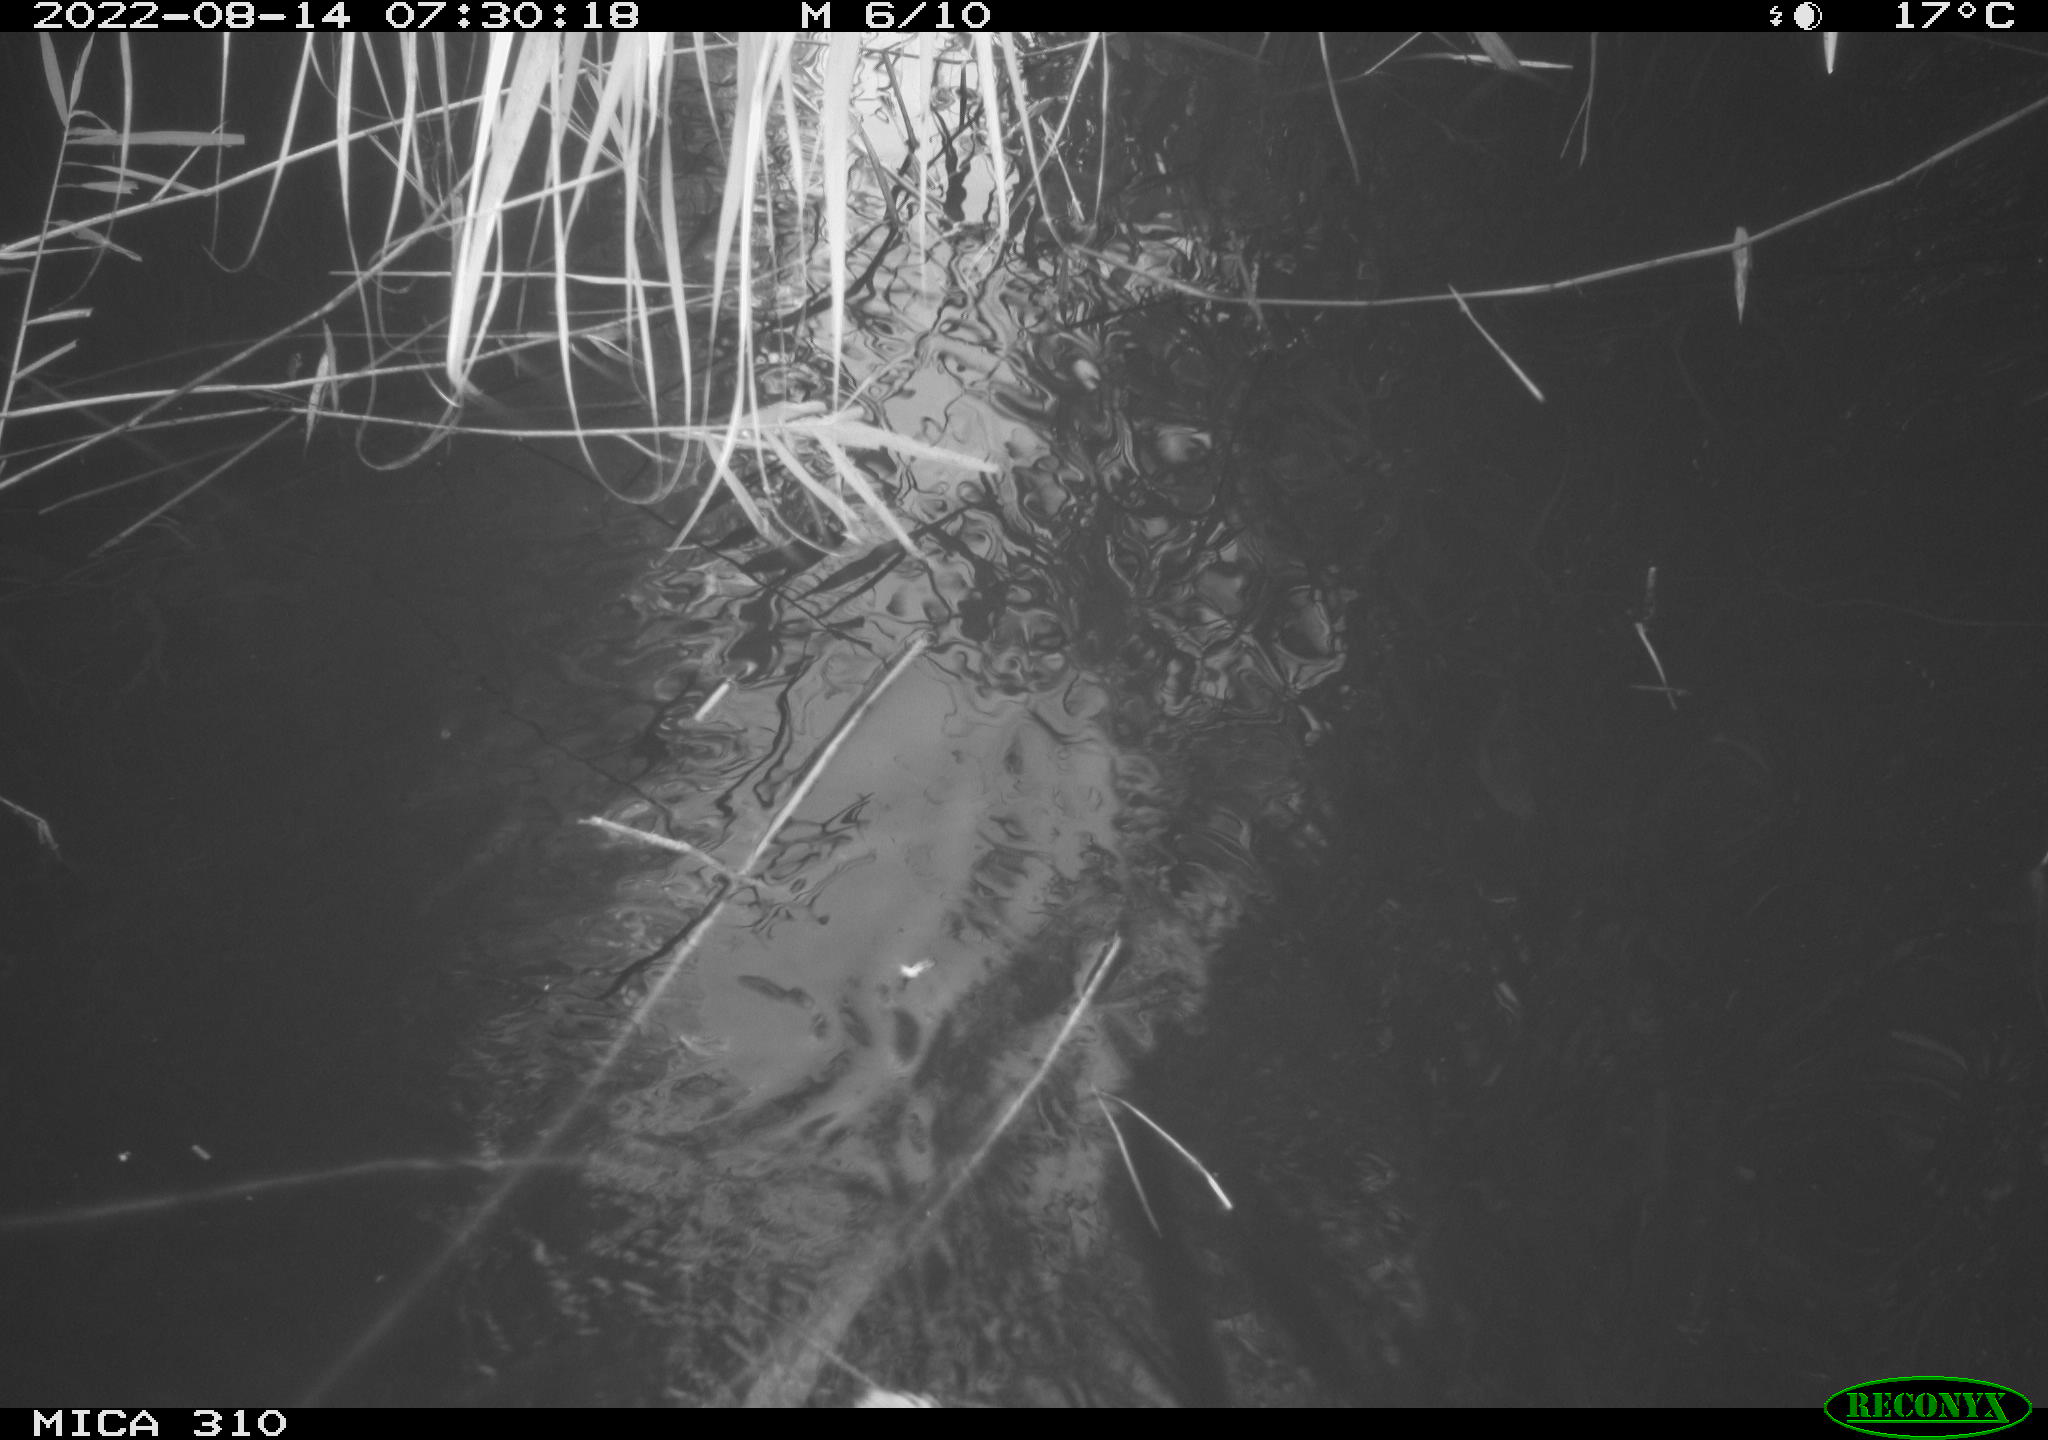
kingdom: Animalia
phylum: Chordata
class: Aves
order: Anseriformes
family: Anatidae
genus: Anas
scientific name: Anas platyrhynchos
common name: Mallard
